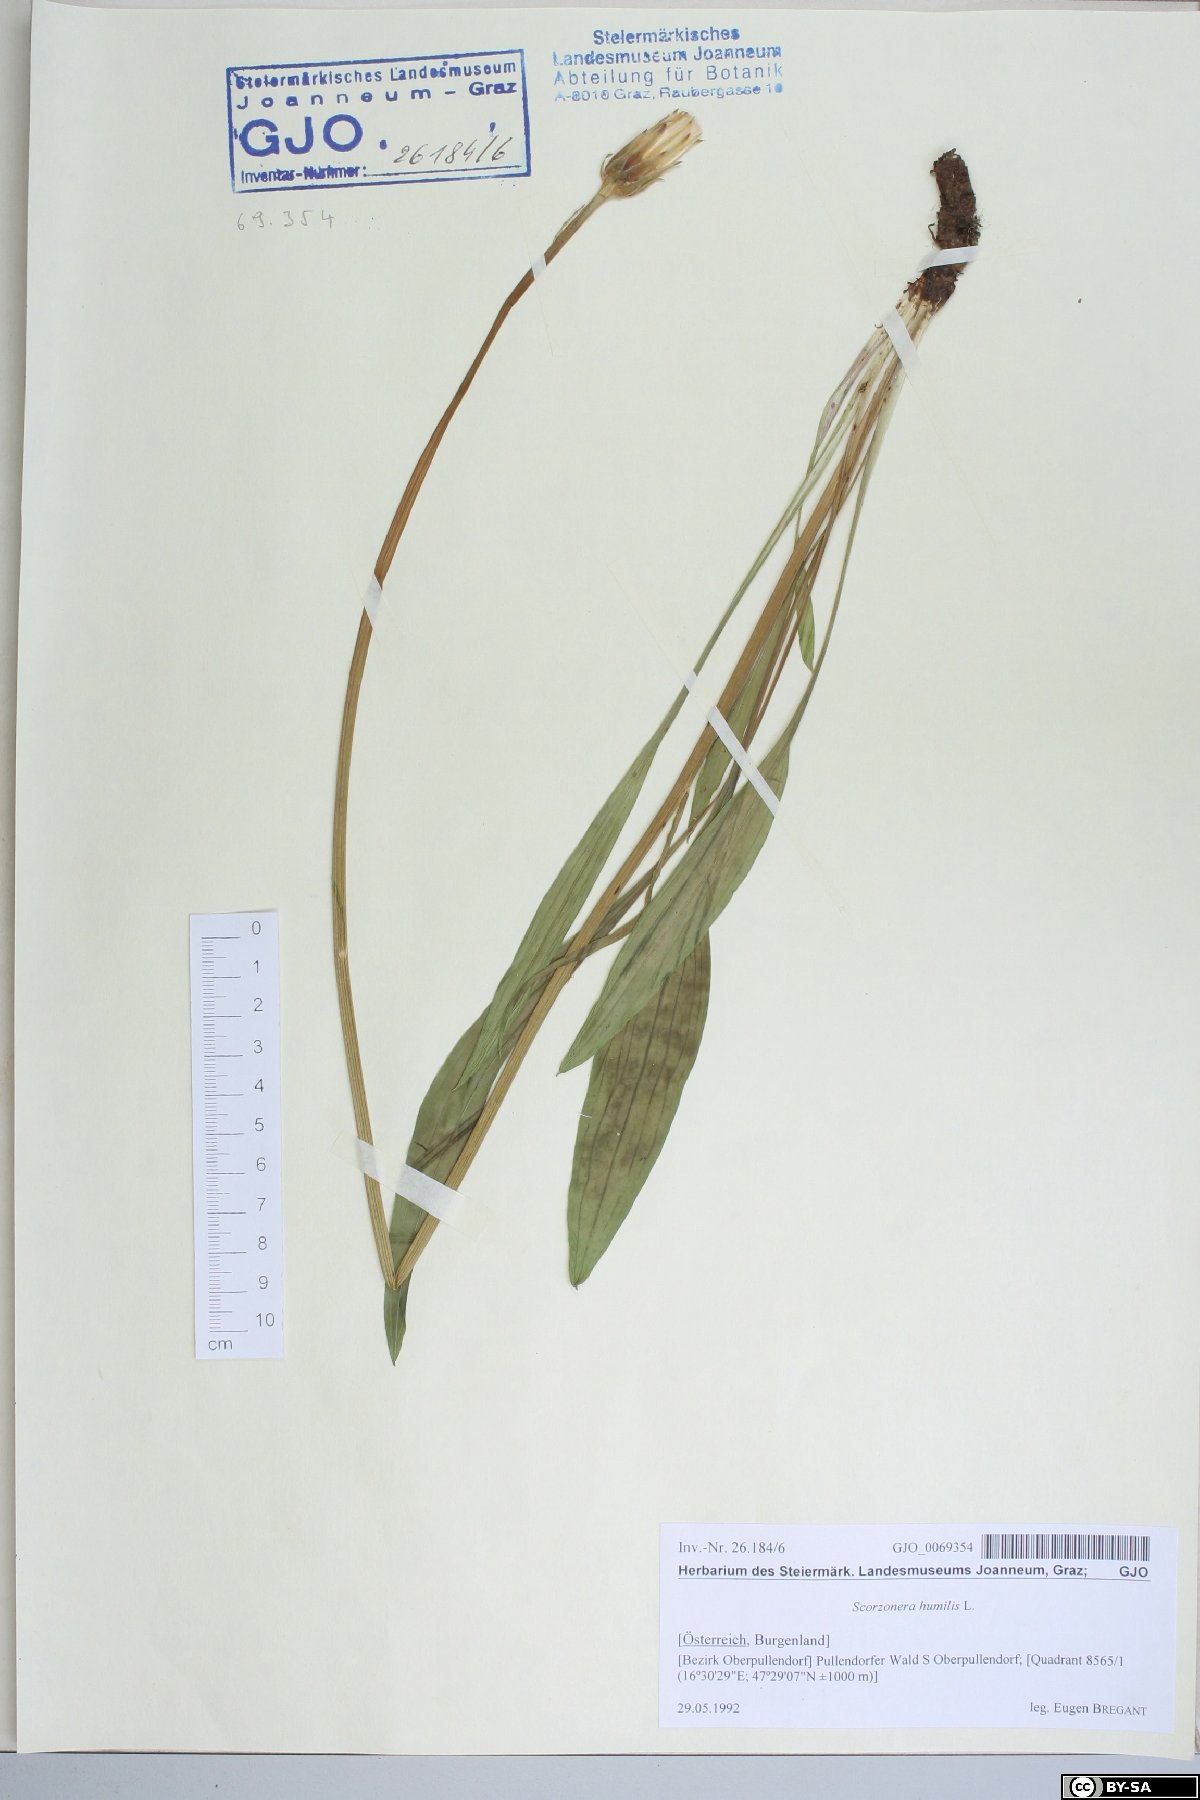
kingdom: Plantae
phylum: Tracheophyta
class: Magnoliopsida
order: Asterales
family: Asteraceae
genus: Scorzonera
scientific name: Scorzonera humilis
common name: Viper's-grass
